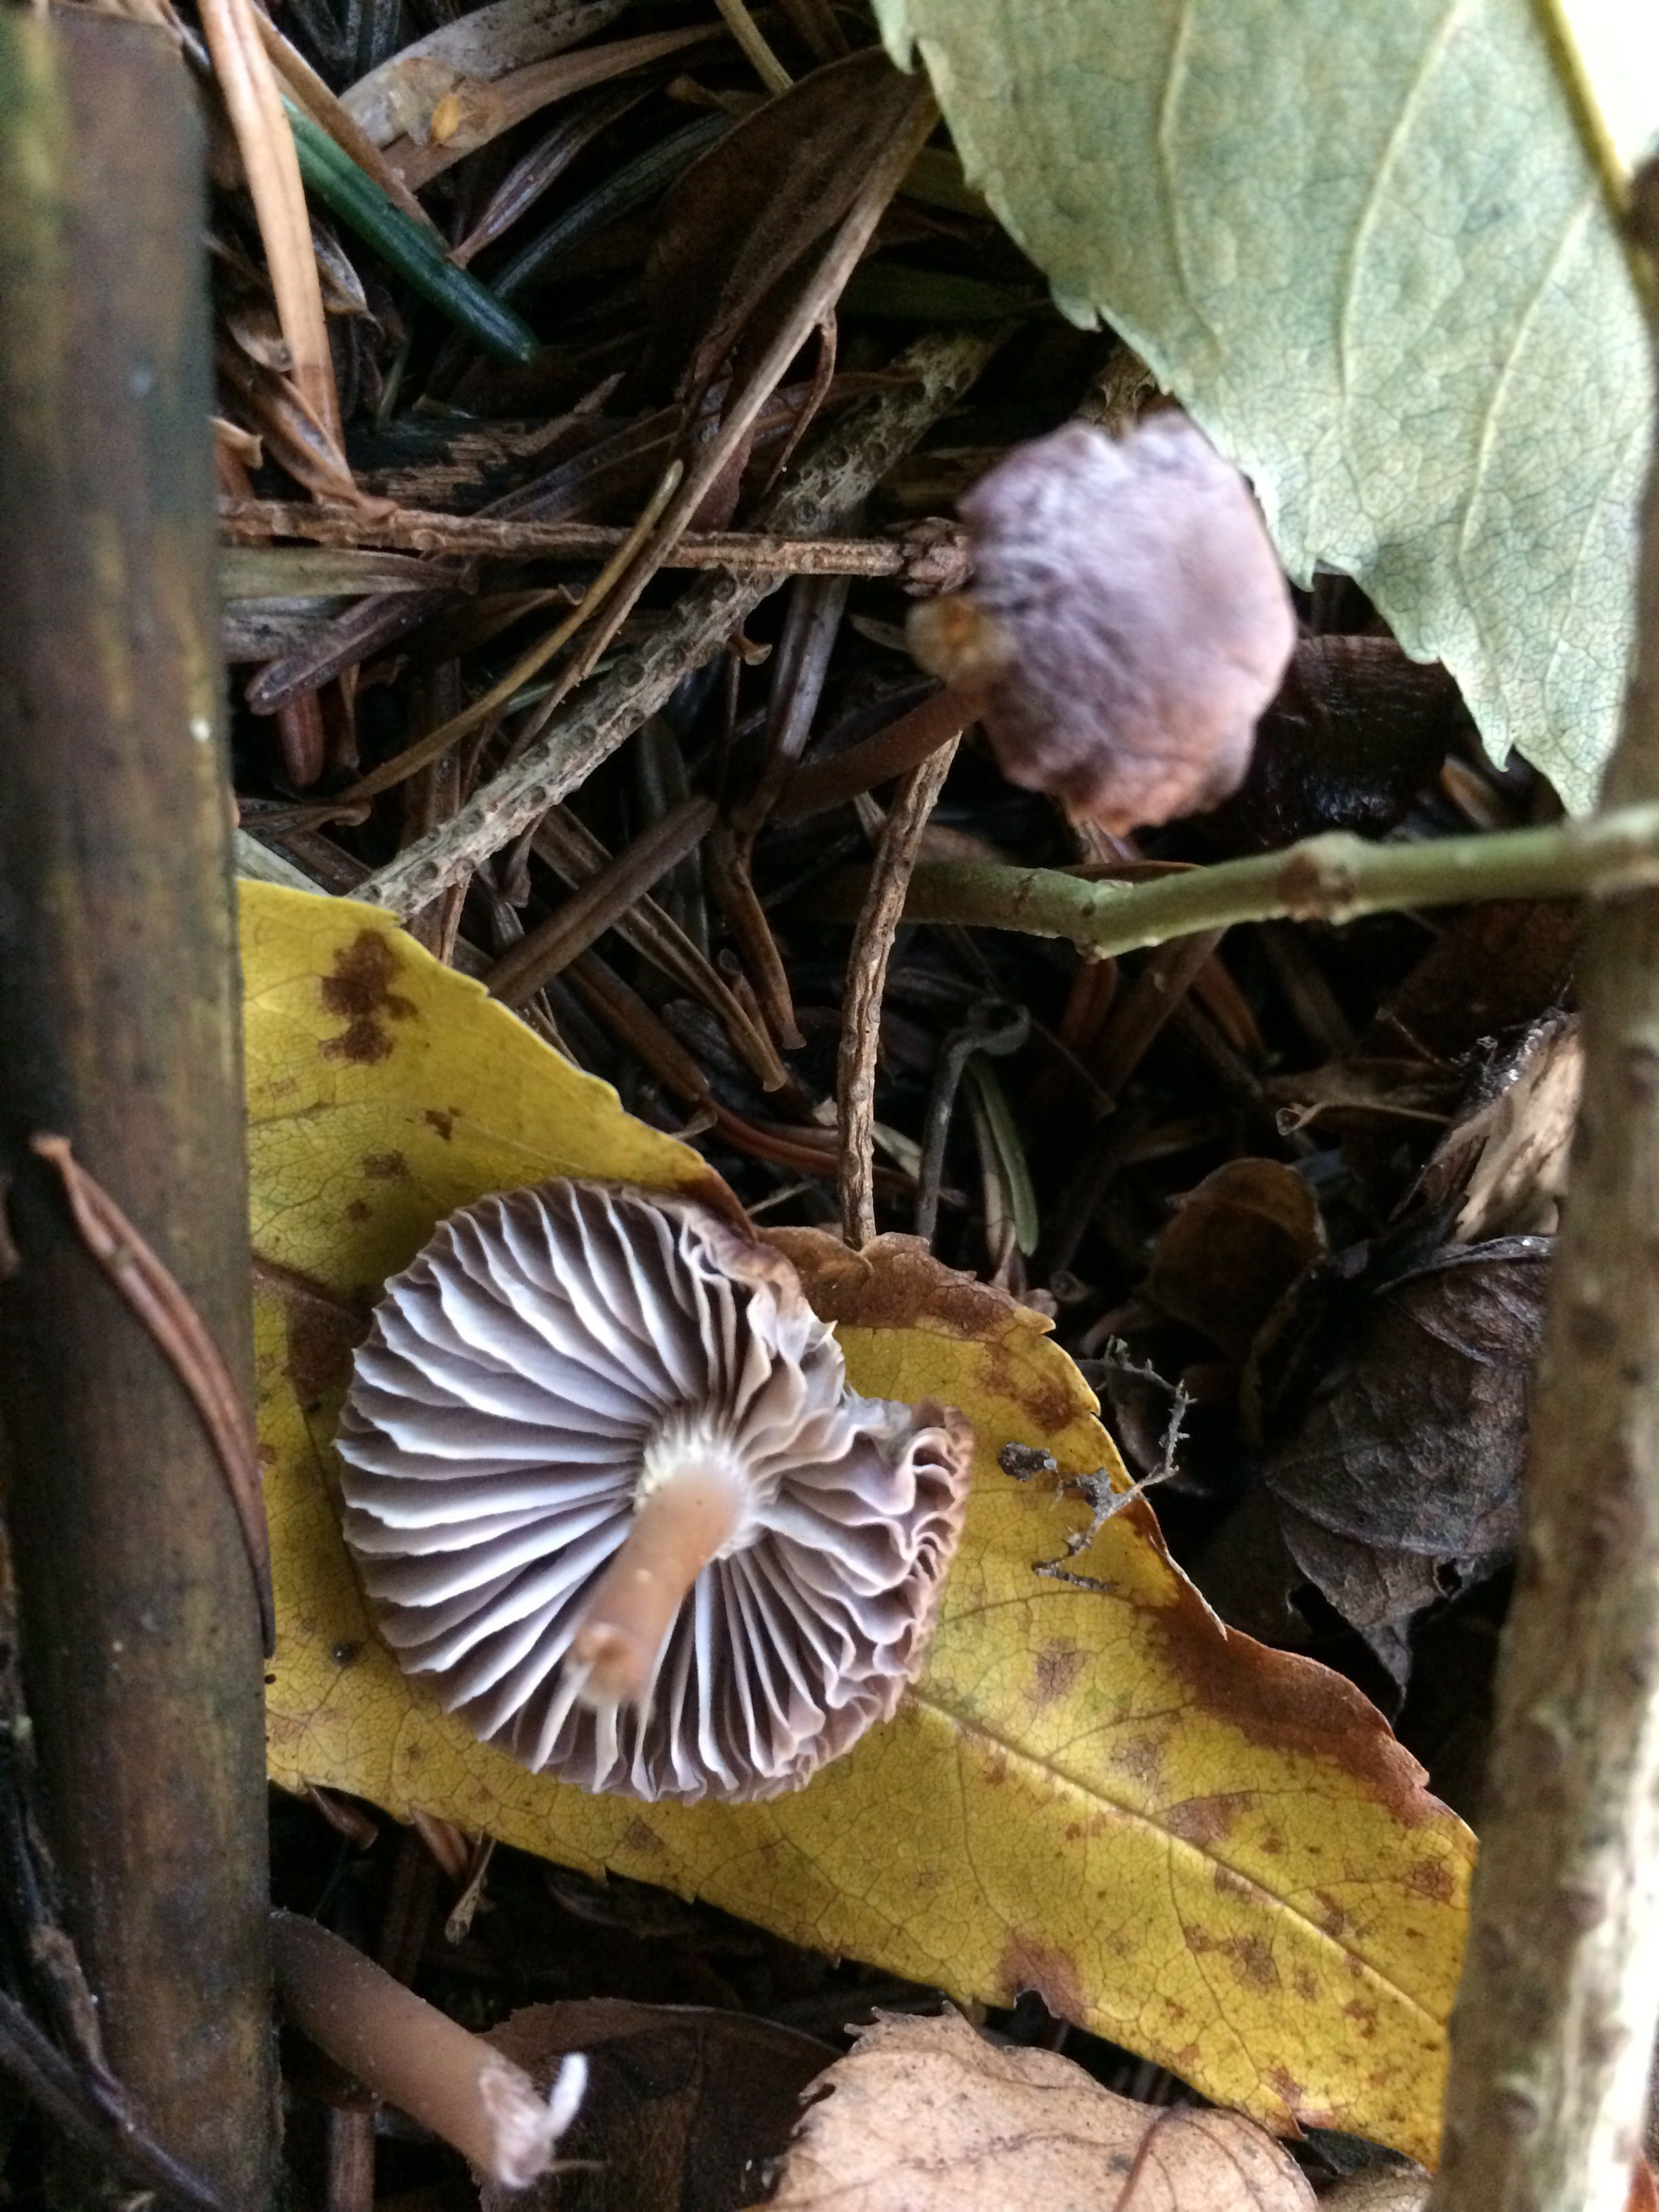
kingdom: Fungi
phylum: Basidiomycota
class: Agaricomycetes
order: Agaricales
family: Mycenaceae
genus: Mycena
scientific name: Mycena
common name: huesvamp
